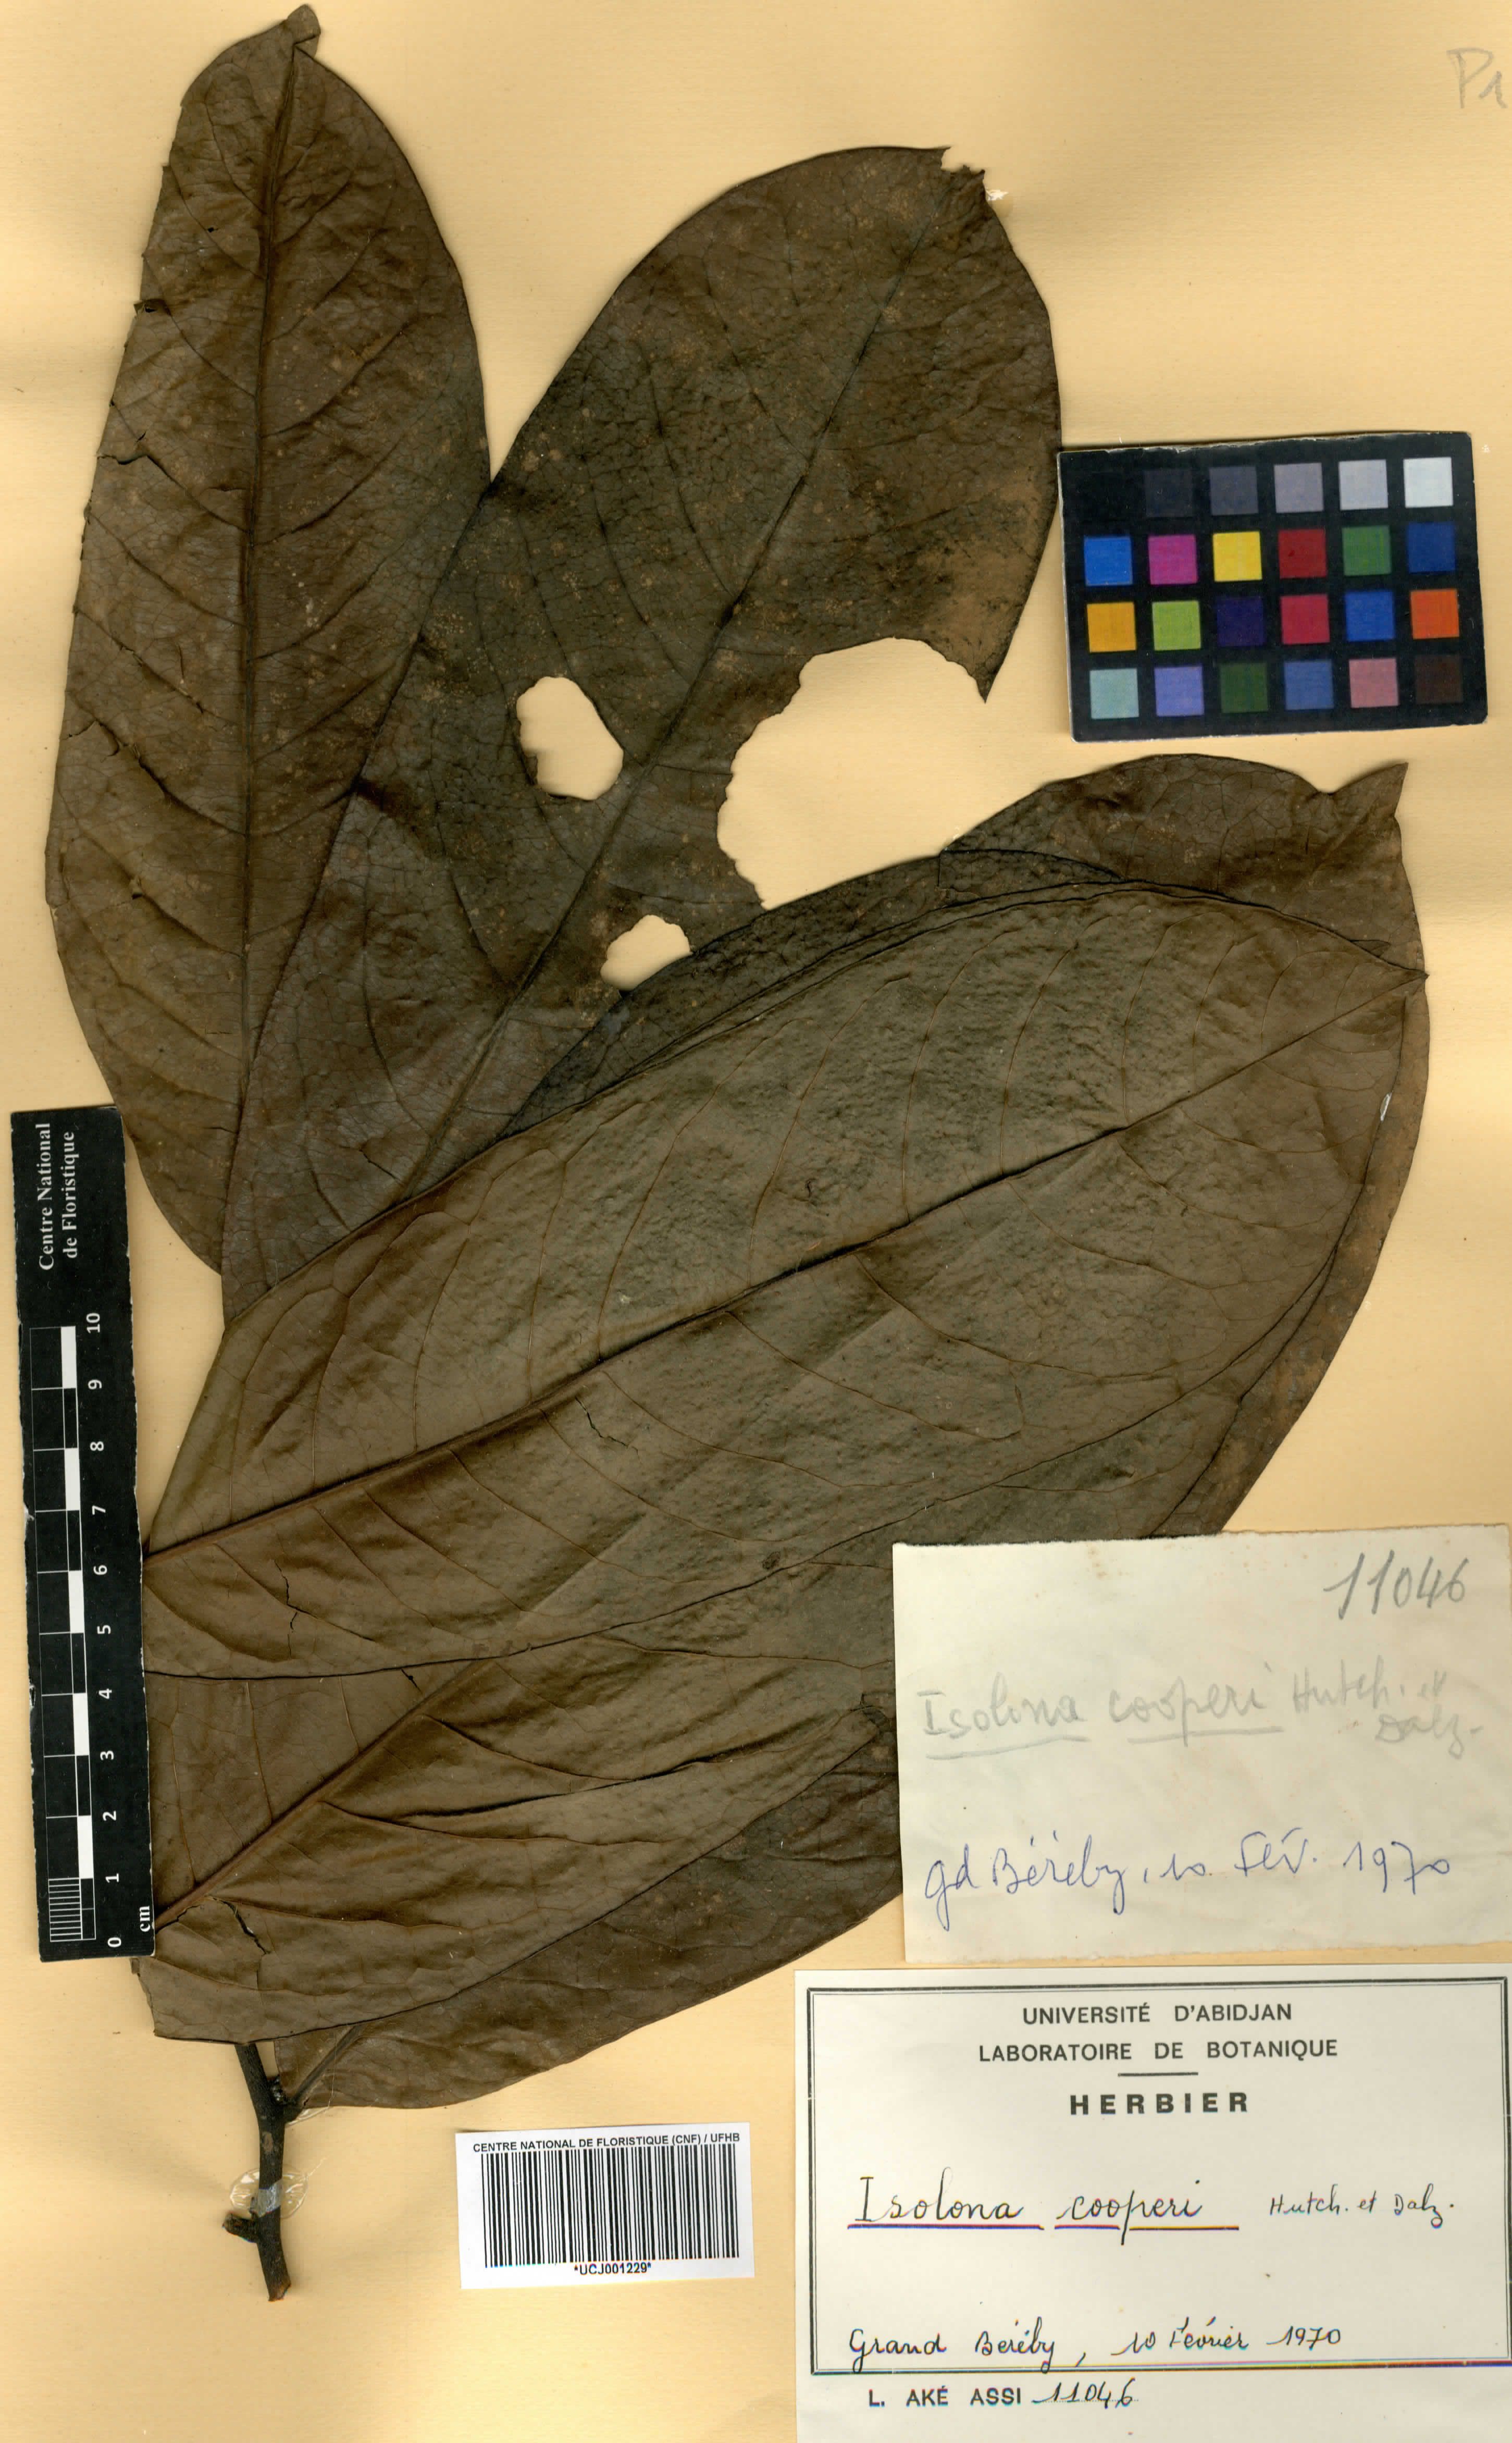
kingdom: Plantae
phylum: Tracheophyta
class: Magnoliopsida
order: Magnoliales
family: Annonaceae
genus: Isolona
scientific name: Isolona cooperi
